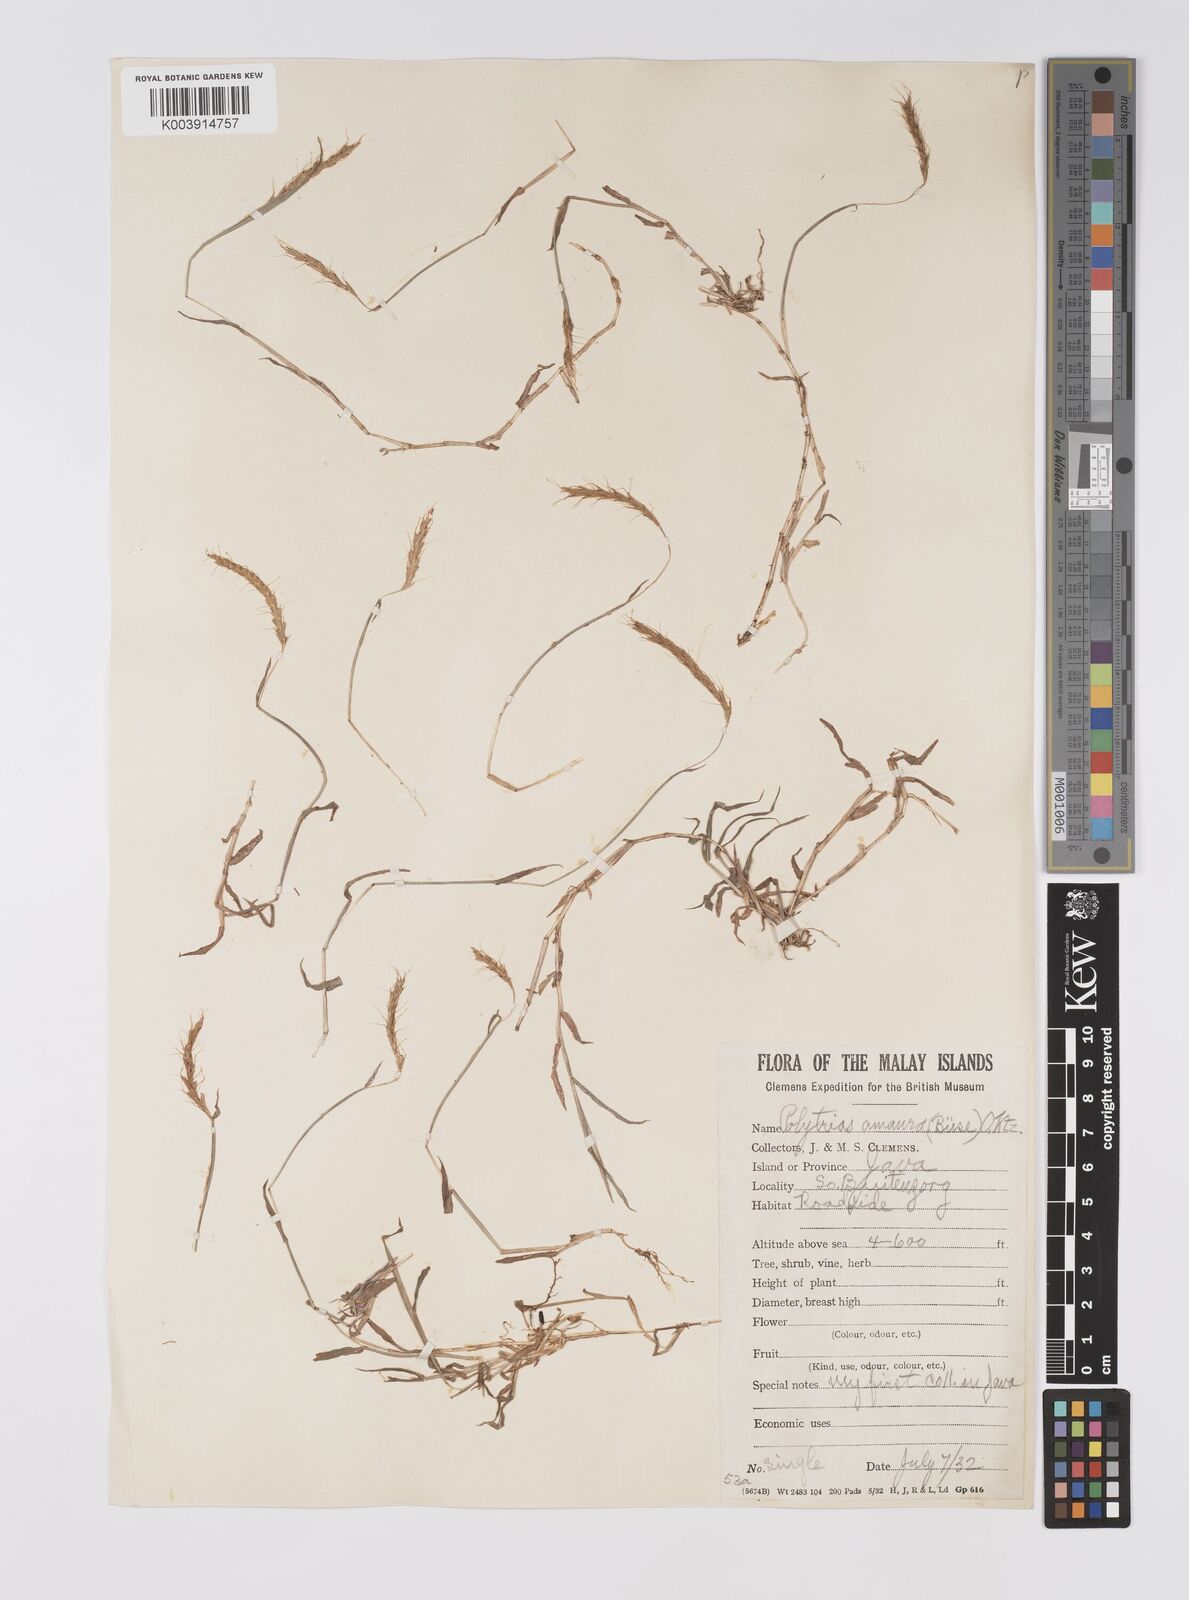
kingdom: Plantae
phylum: Tracheophyta
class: Liliopsida
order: Poales
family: Poaceae
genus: Polytrias
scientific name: Polytrias
